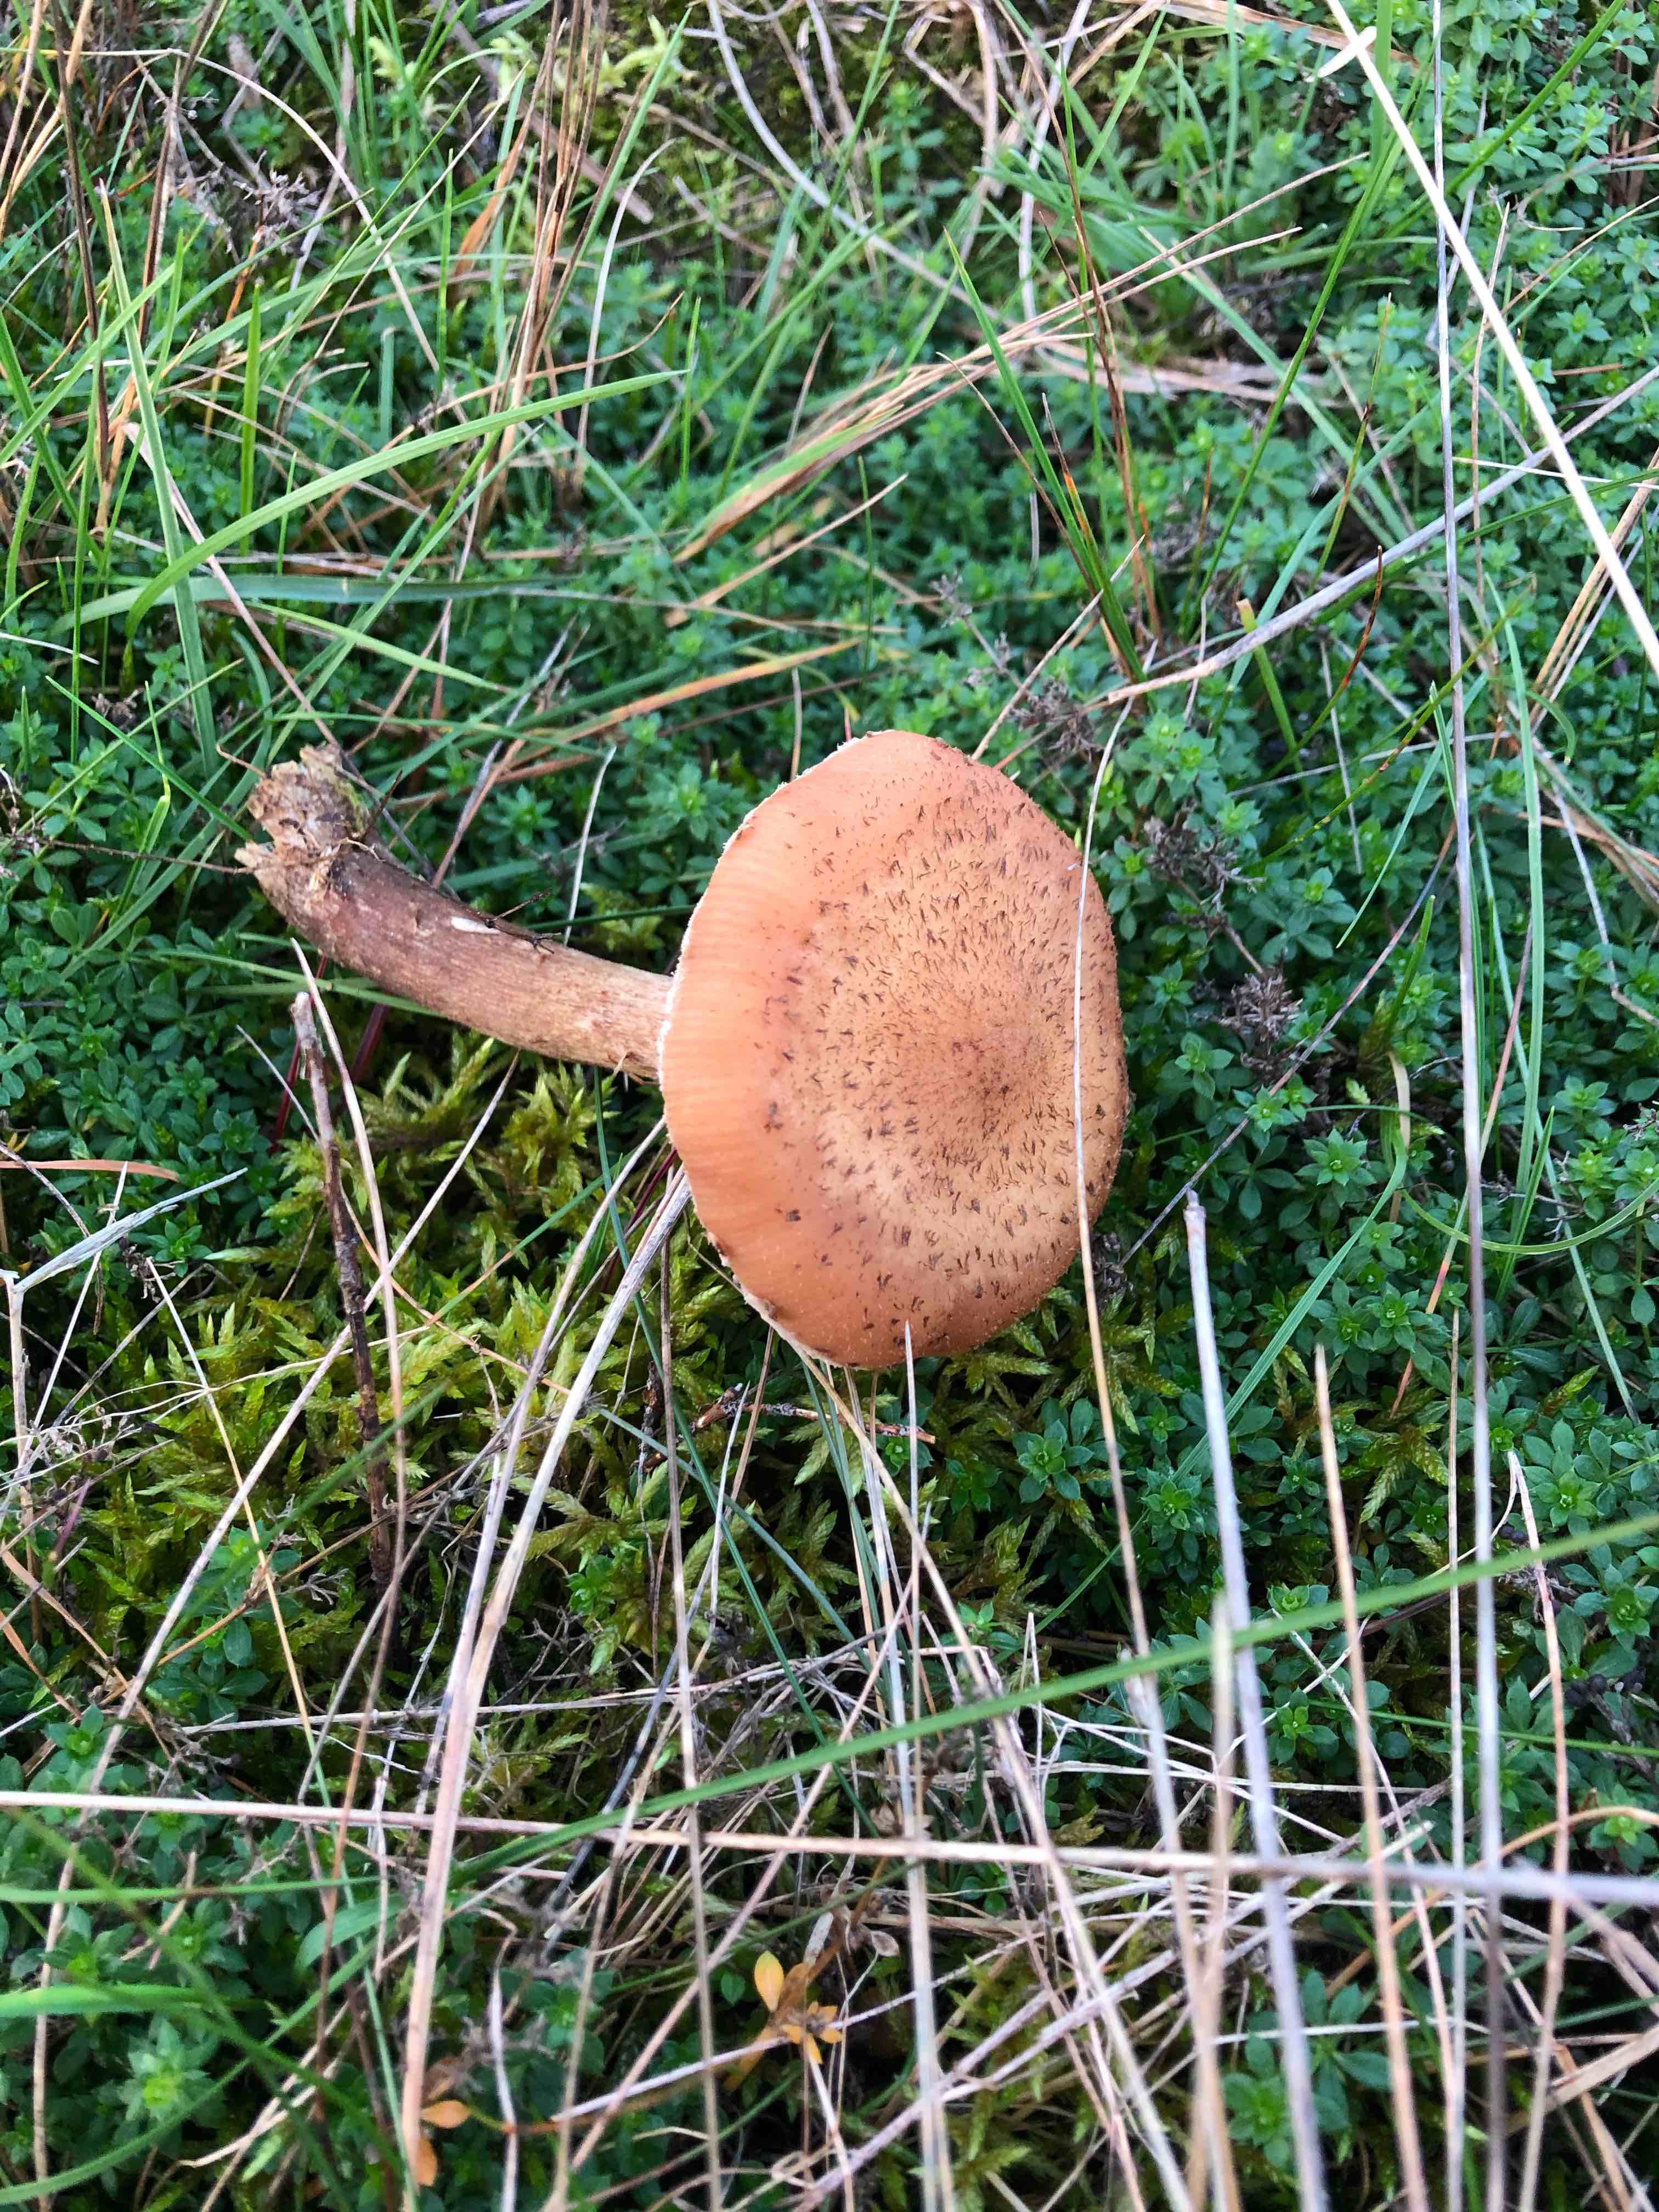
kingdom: Fungi
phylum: Basidiomycota
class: Agaricomycetes
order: Agaricales
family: Physalacriaceae
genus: Armillaria
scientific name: Armillaria ostoyae
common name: mørk honningsvamp
